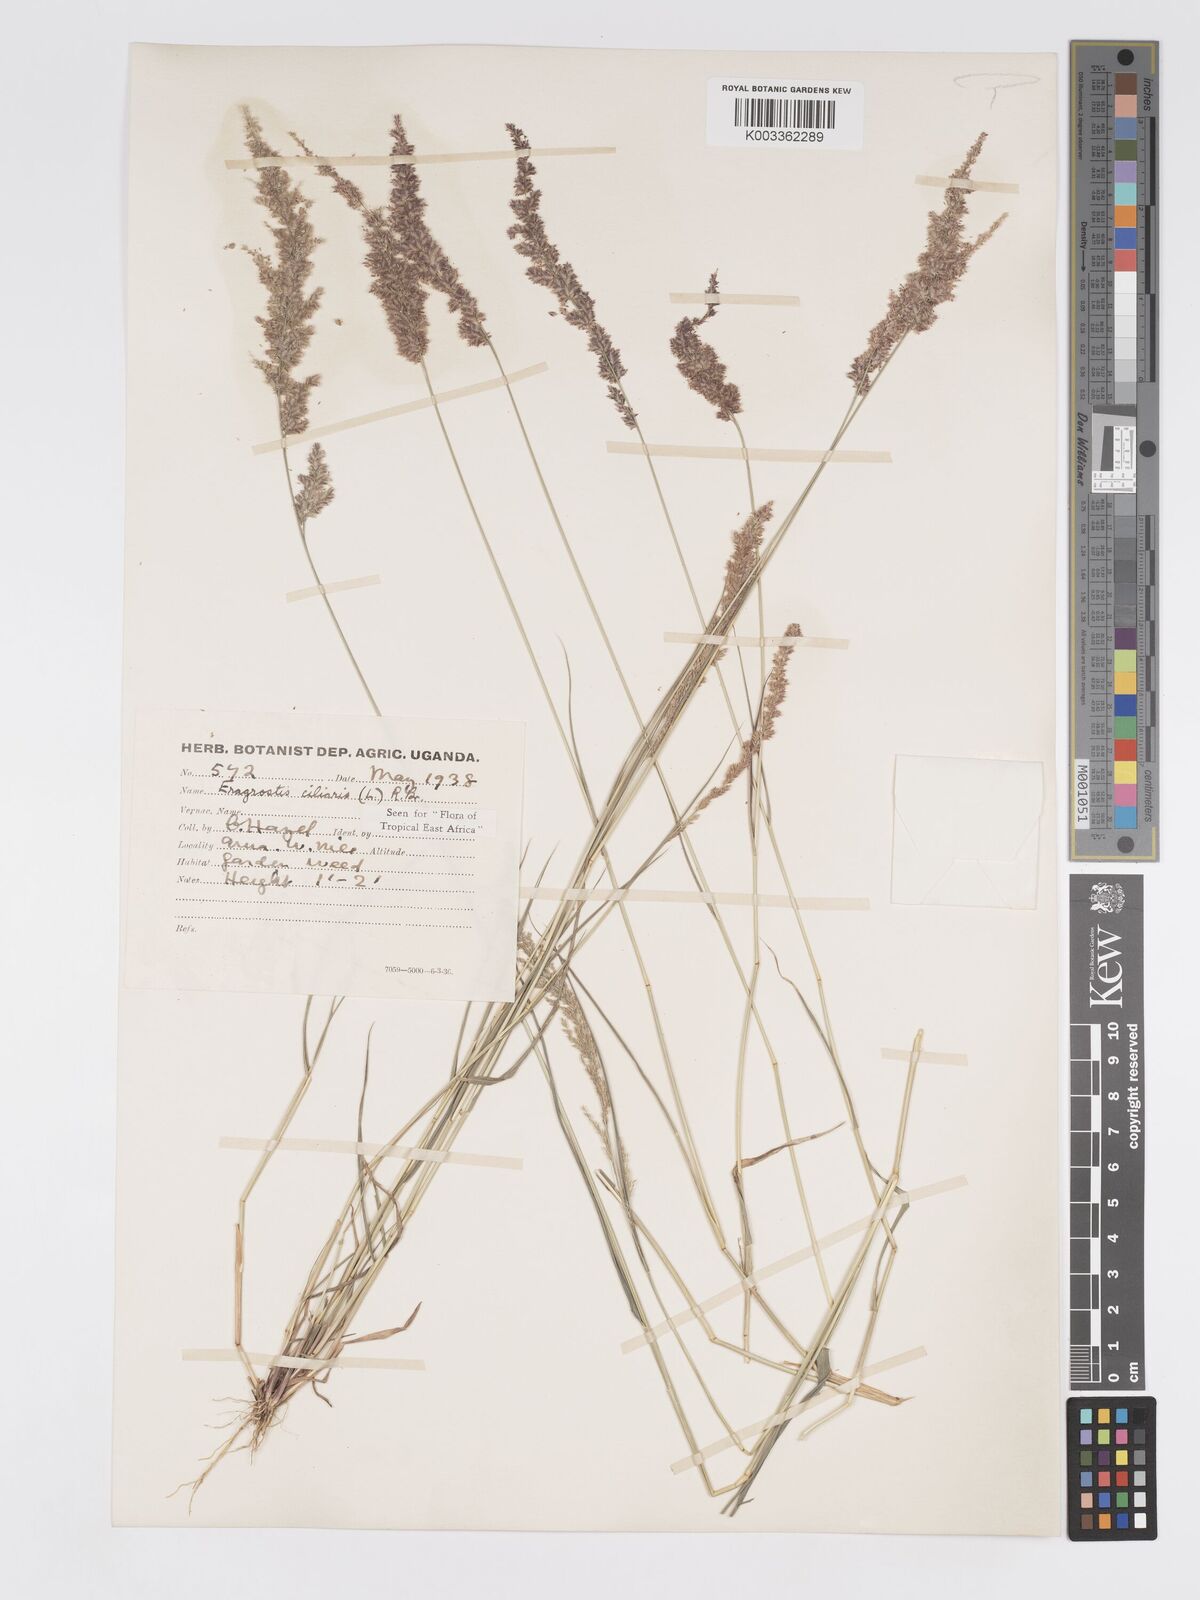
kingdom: Plantae
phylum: Tracheophyta
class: Liliopsida
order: Poales
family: Poaceae
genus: Eragrostis
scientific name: Eragrostis ciliaris
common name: Gophertail lovegrass
